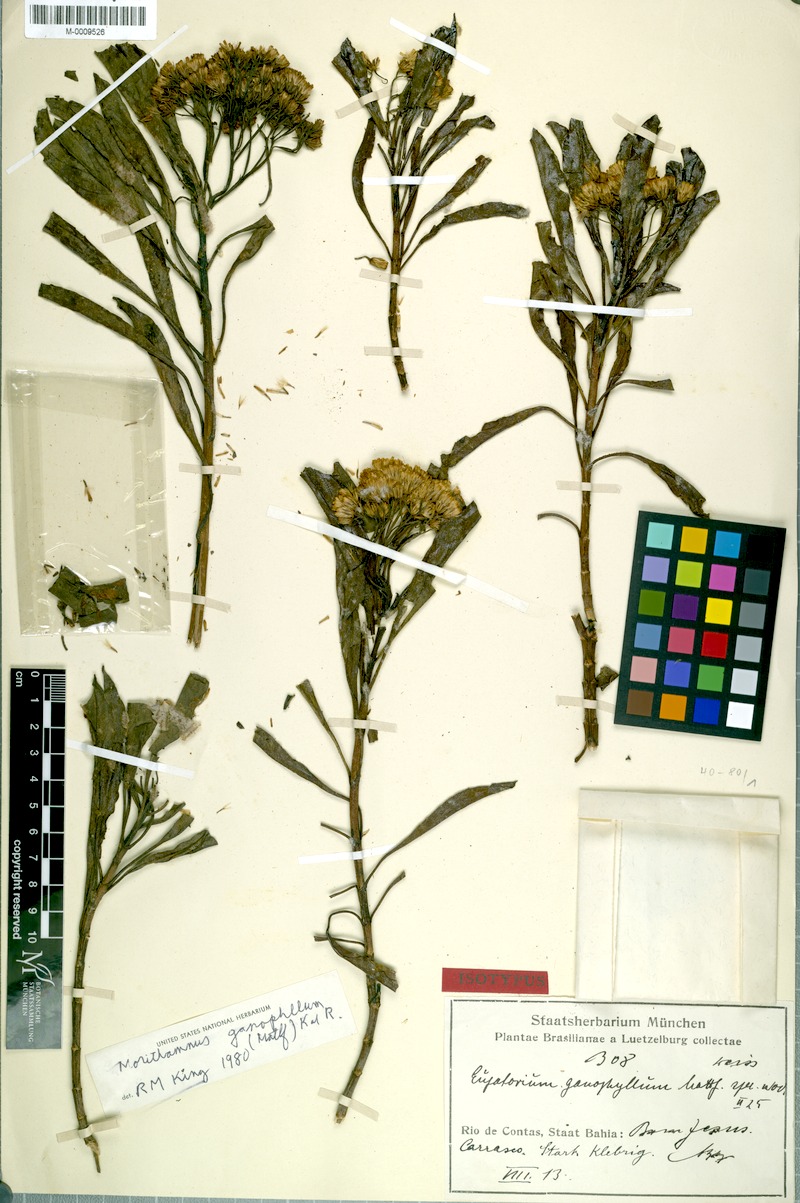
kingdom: Plantae
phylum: Tracheophyta
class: Magnoliopsida
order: Asterales
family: Asteraceae
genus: Morithamnus
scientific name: Morithamnus ganophyllus
